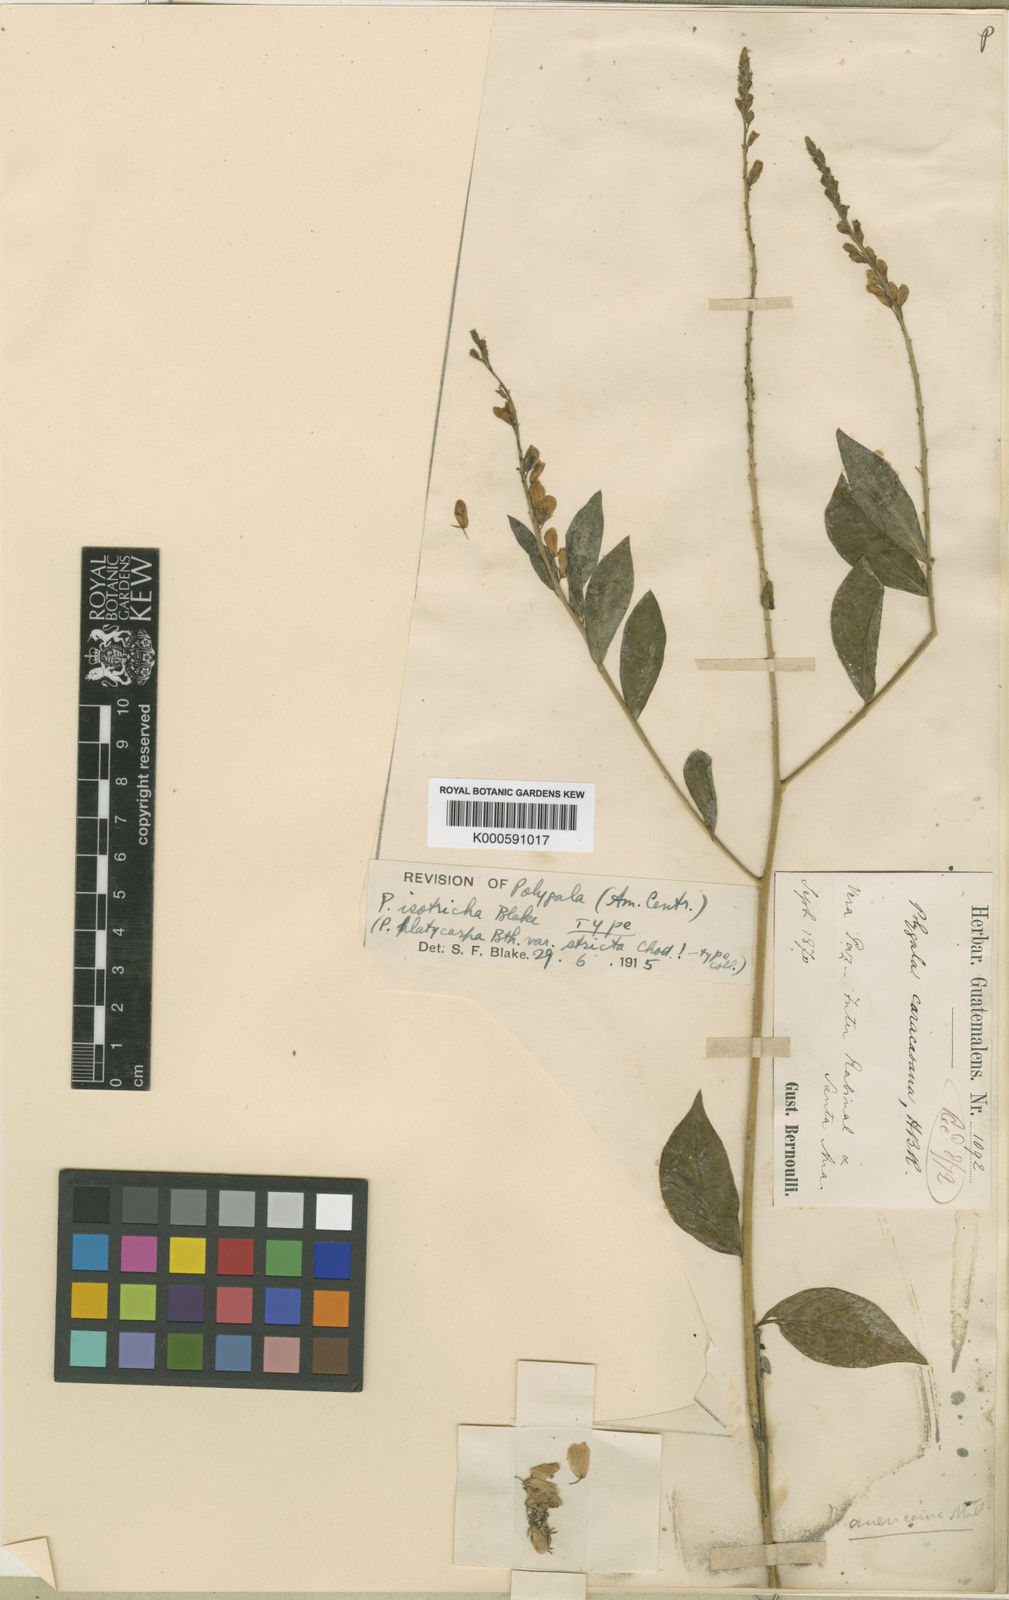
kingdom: Plantae
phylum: Tracheophyta
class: Magnoliopsida
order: Fabales
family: Polygalaceae
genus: Hebecarpa
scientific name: Hebecarpa costaricensis
